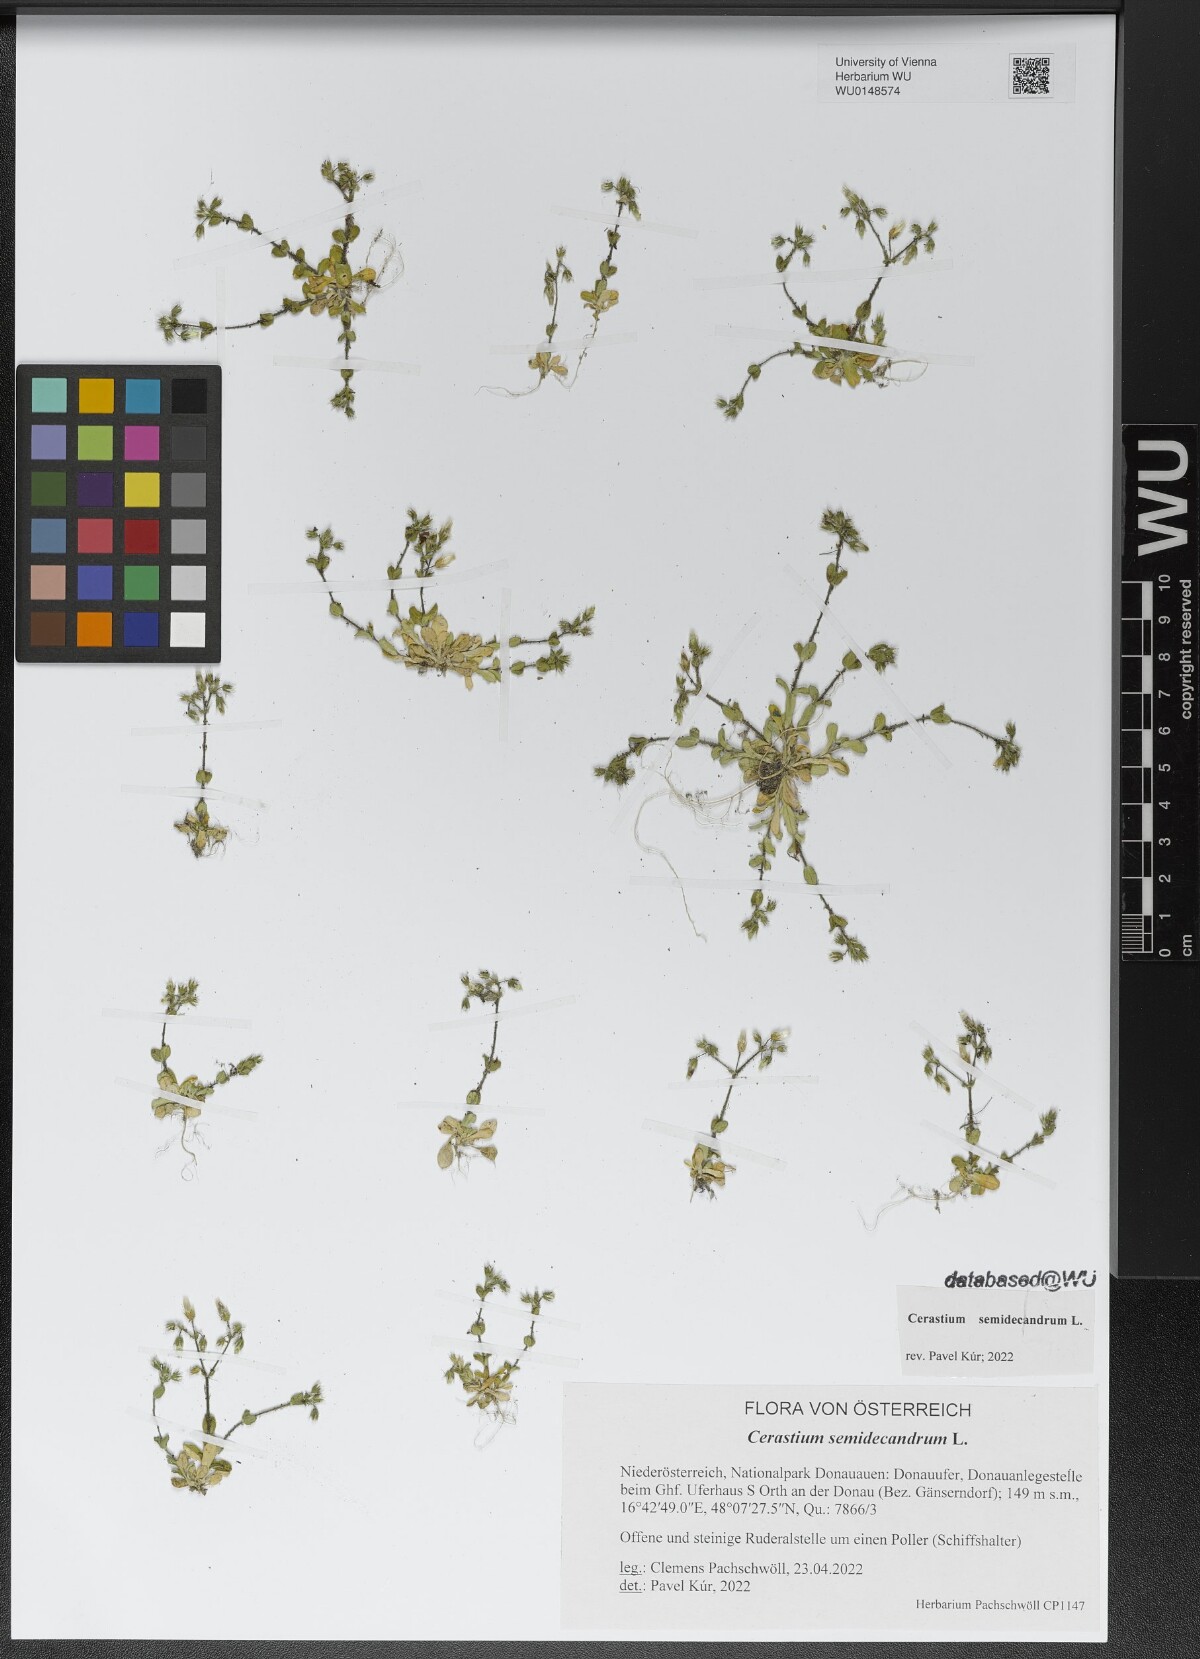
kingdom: Plantae
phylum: Tracheophyta
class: Magnoliopsida
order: Caryophyllales
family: Caryophyllaceae
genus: Cerastium
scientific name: Cerastium semidecandrum
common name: Little mouse-ear
